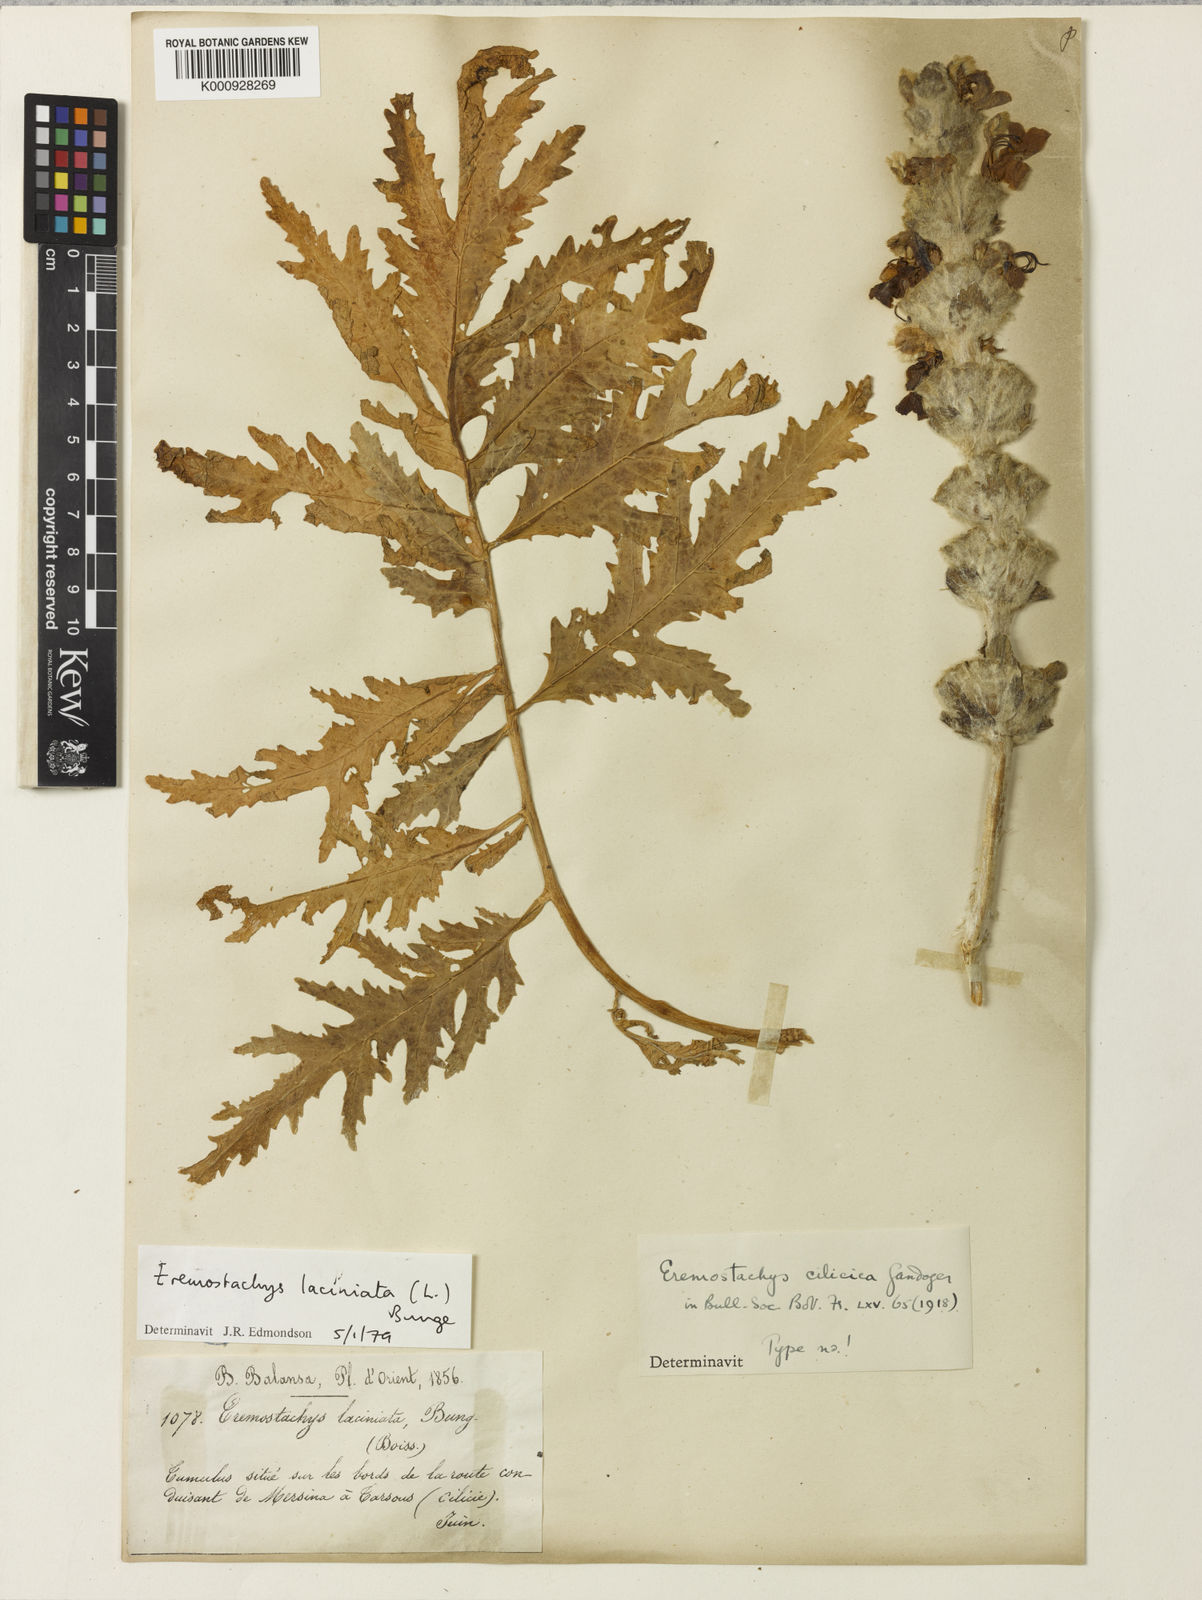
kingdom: Plantae
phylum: Tracheophyta
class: Magnoliopsida
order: Lamiales
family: Lamiaceae
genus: Phlomoides
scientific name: Phlomoides laciniata
